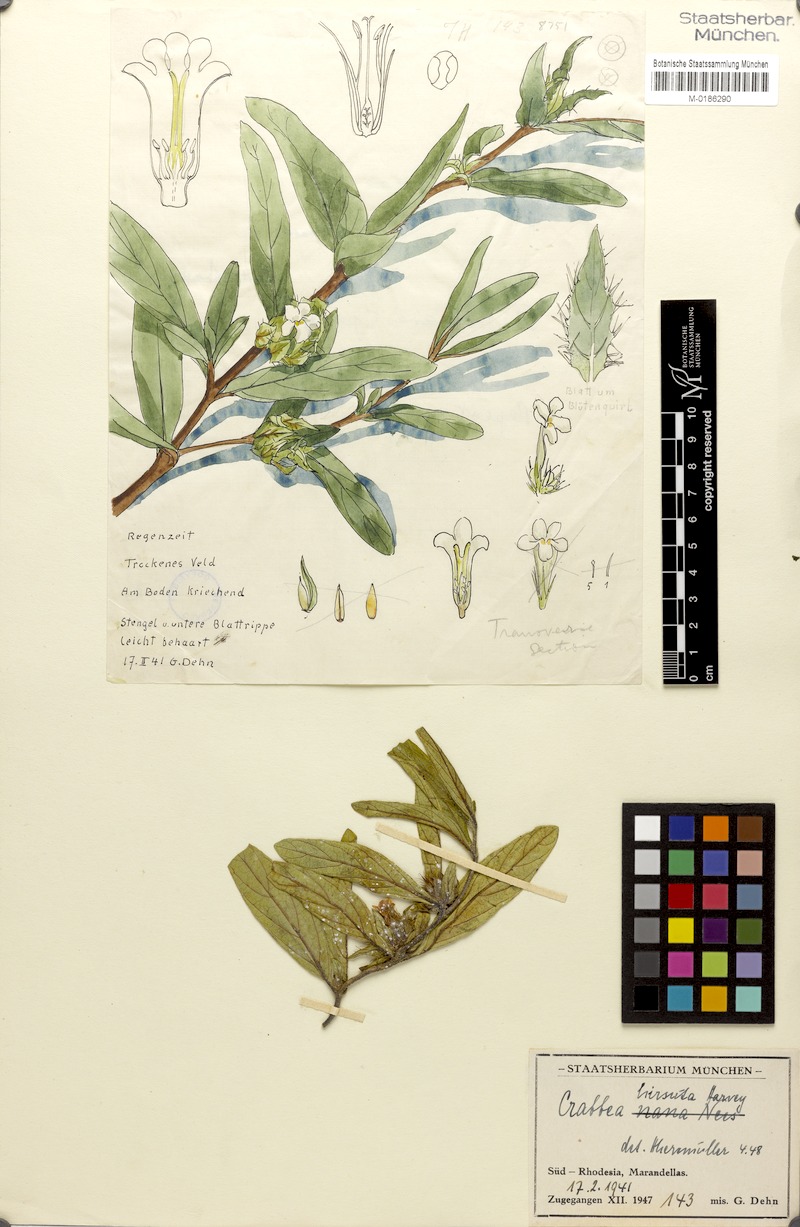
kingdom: Plantae
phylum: Tracheophyta
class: Magnoliopsida
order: Lamiales
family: Acanthaceae
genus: Crabbea
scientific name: Crabbea cirsioides
